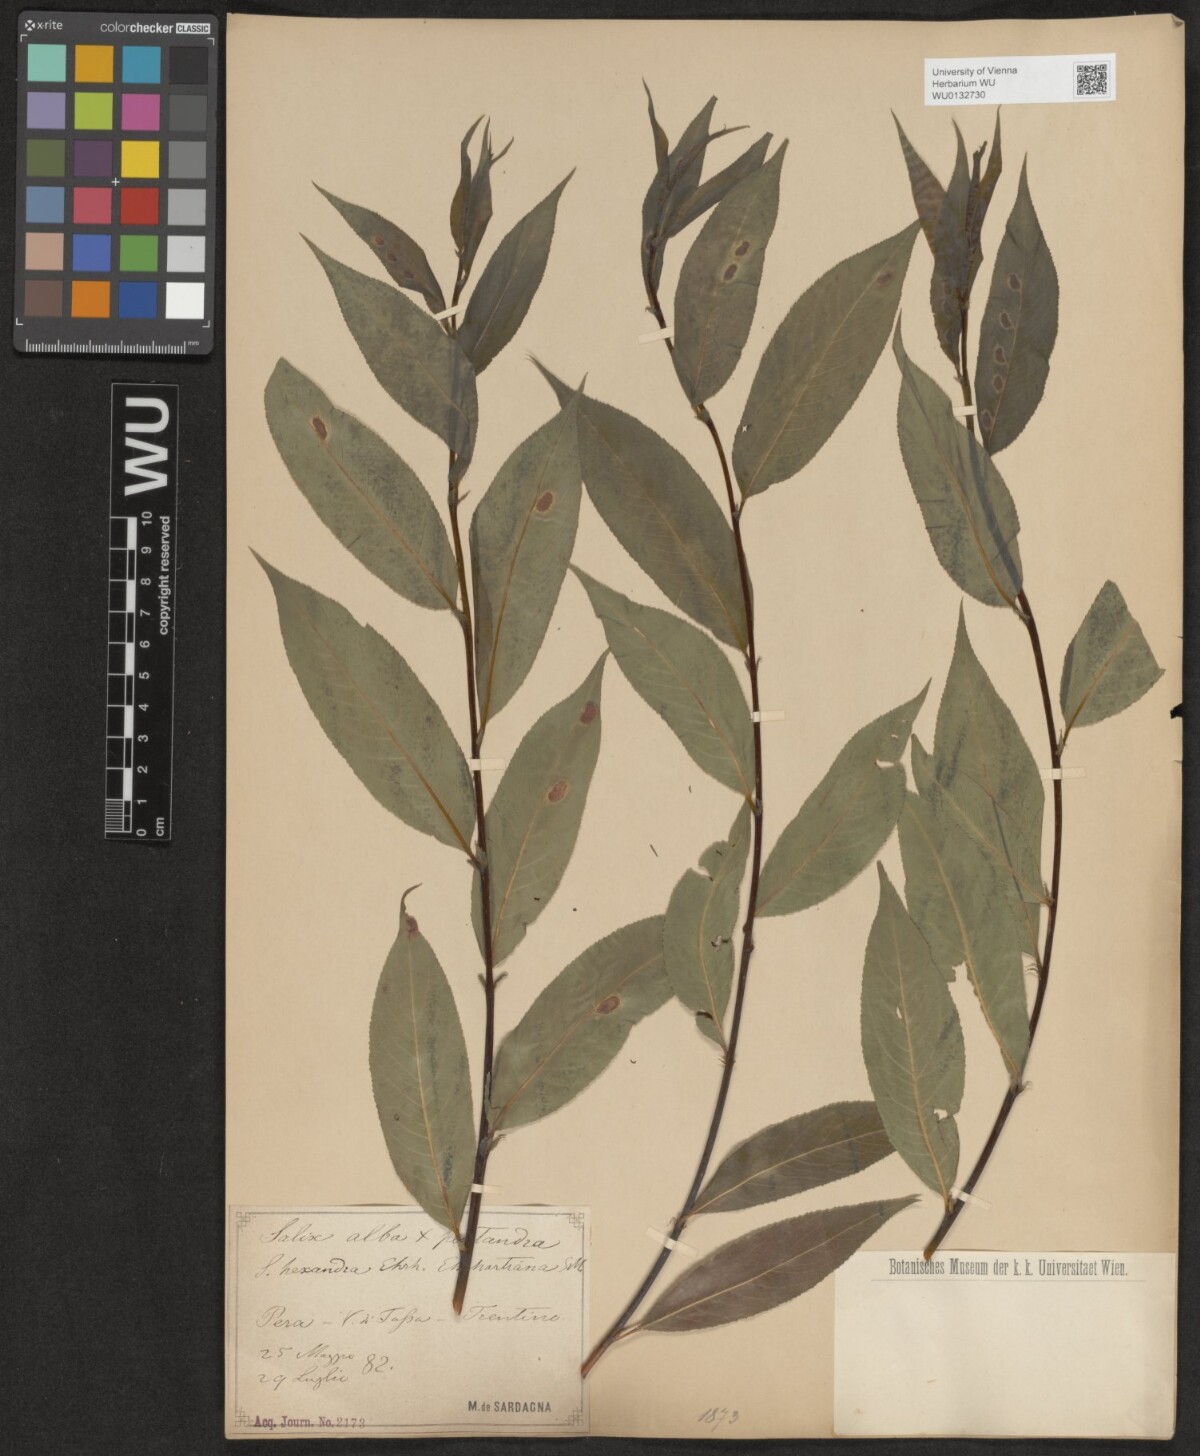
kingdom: Plantae
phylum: Tracheophyta
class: Magnoliopsida
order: Malpighiales
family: Salicaceae
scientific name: Salicaceae
